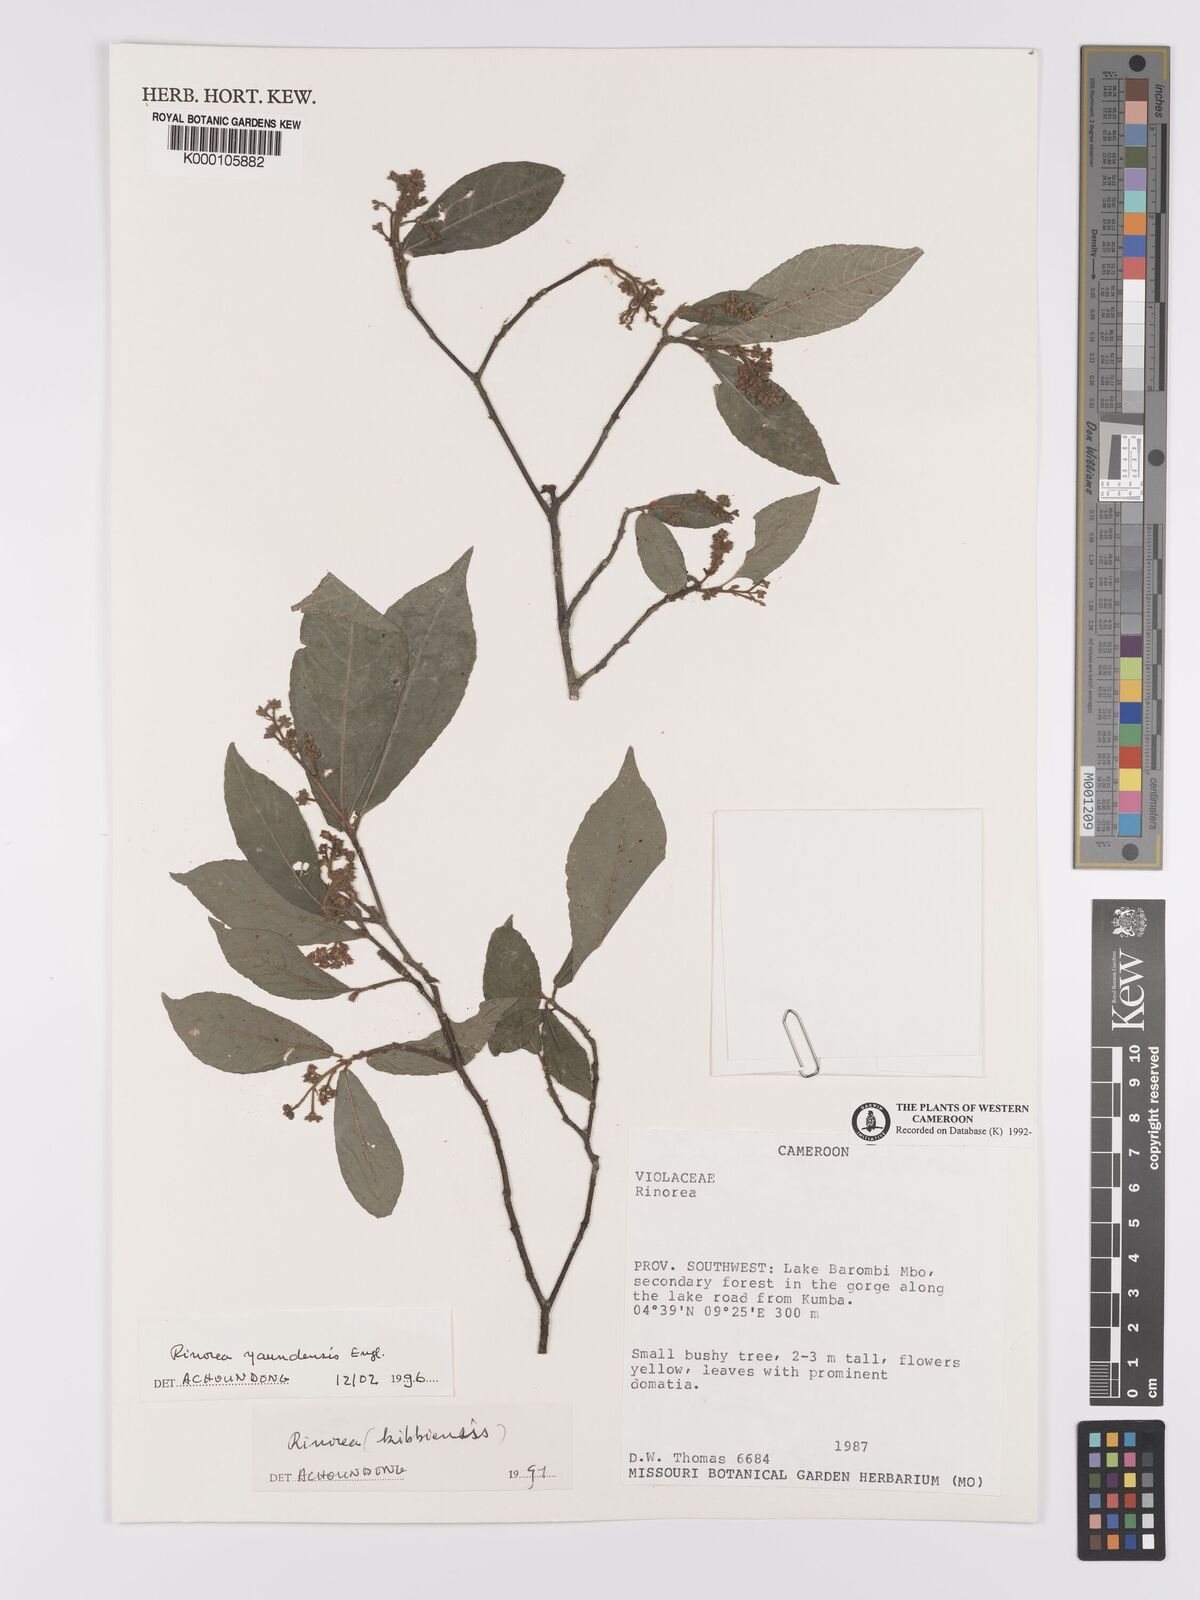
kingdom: Plantae
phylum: Tracheophyta
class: Magnoliopsida
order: Malpighiales
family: Violaceae
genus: Rinorea
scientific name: Rinorea yaundensis
